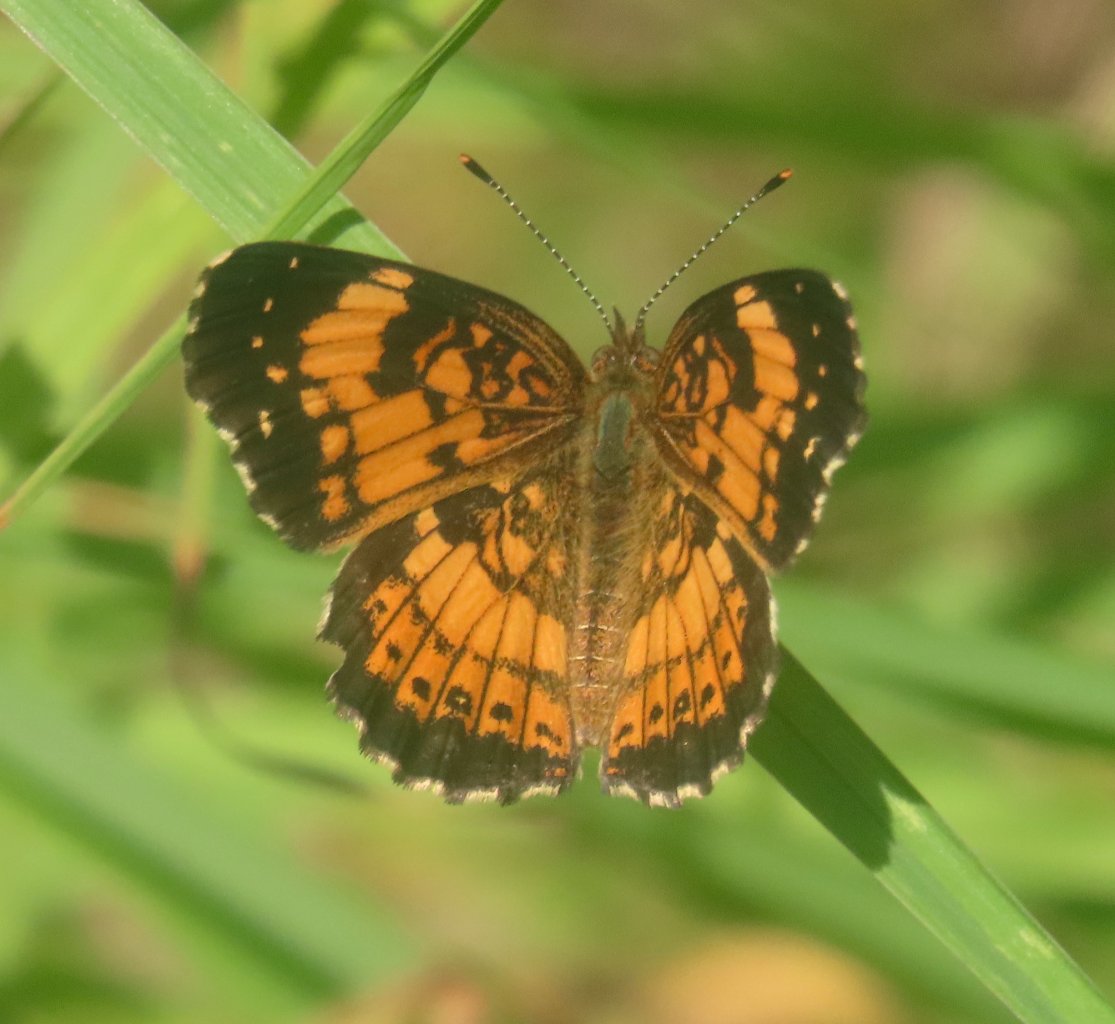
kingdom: Animalia
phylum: Arthropoda
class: Insecta
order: Lepidoptera
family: Nymphalidae
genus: Chlosyne
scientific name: Chlosyne nycteis
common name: Silvery Checkerspot
